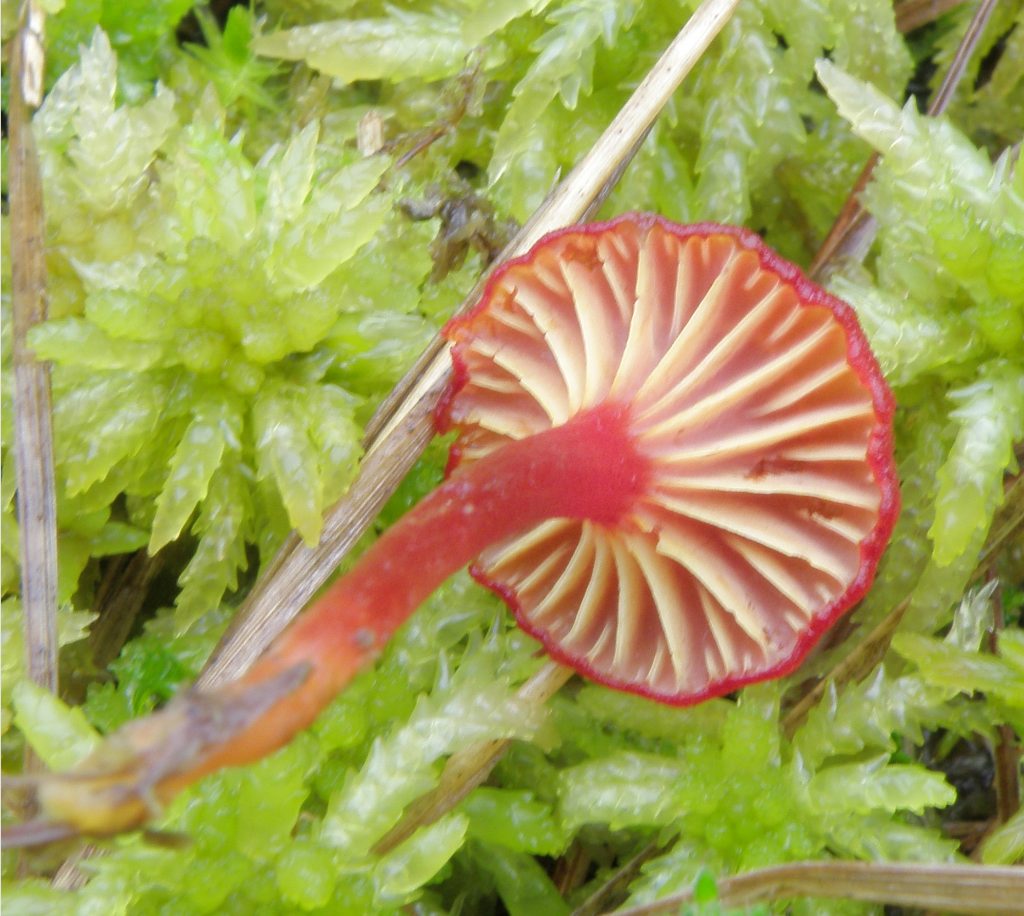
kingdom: Fungi
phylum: Basidiomycota
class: Agaricomycetes
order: Agaricales
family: Hygrophoraceae
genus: Hygrocybe
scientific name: Hygrocybe coccineocrenata
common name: tørvemos-vokshat
